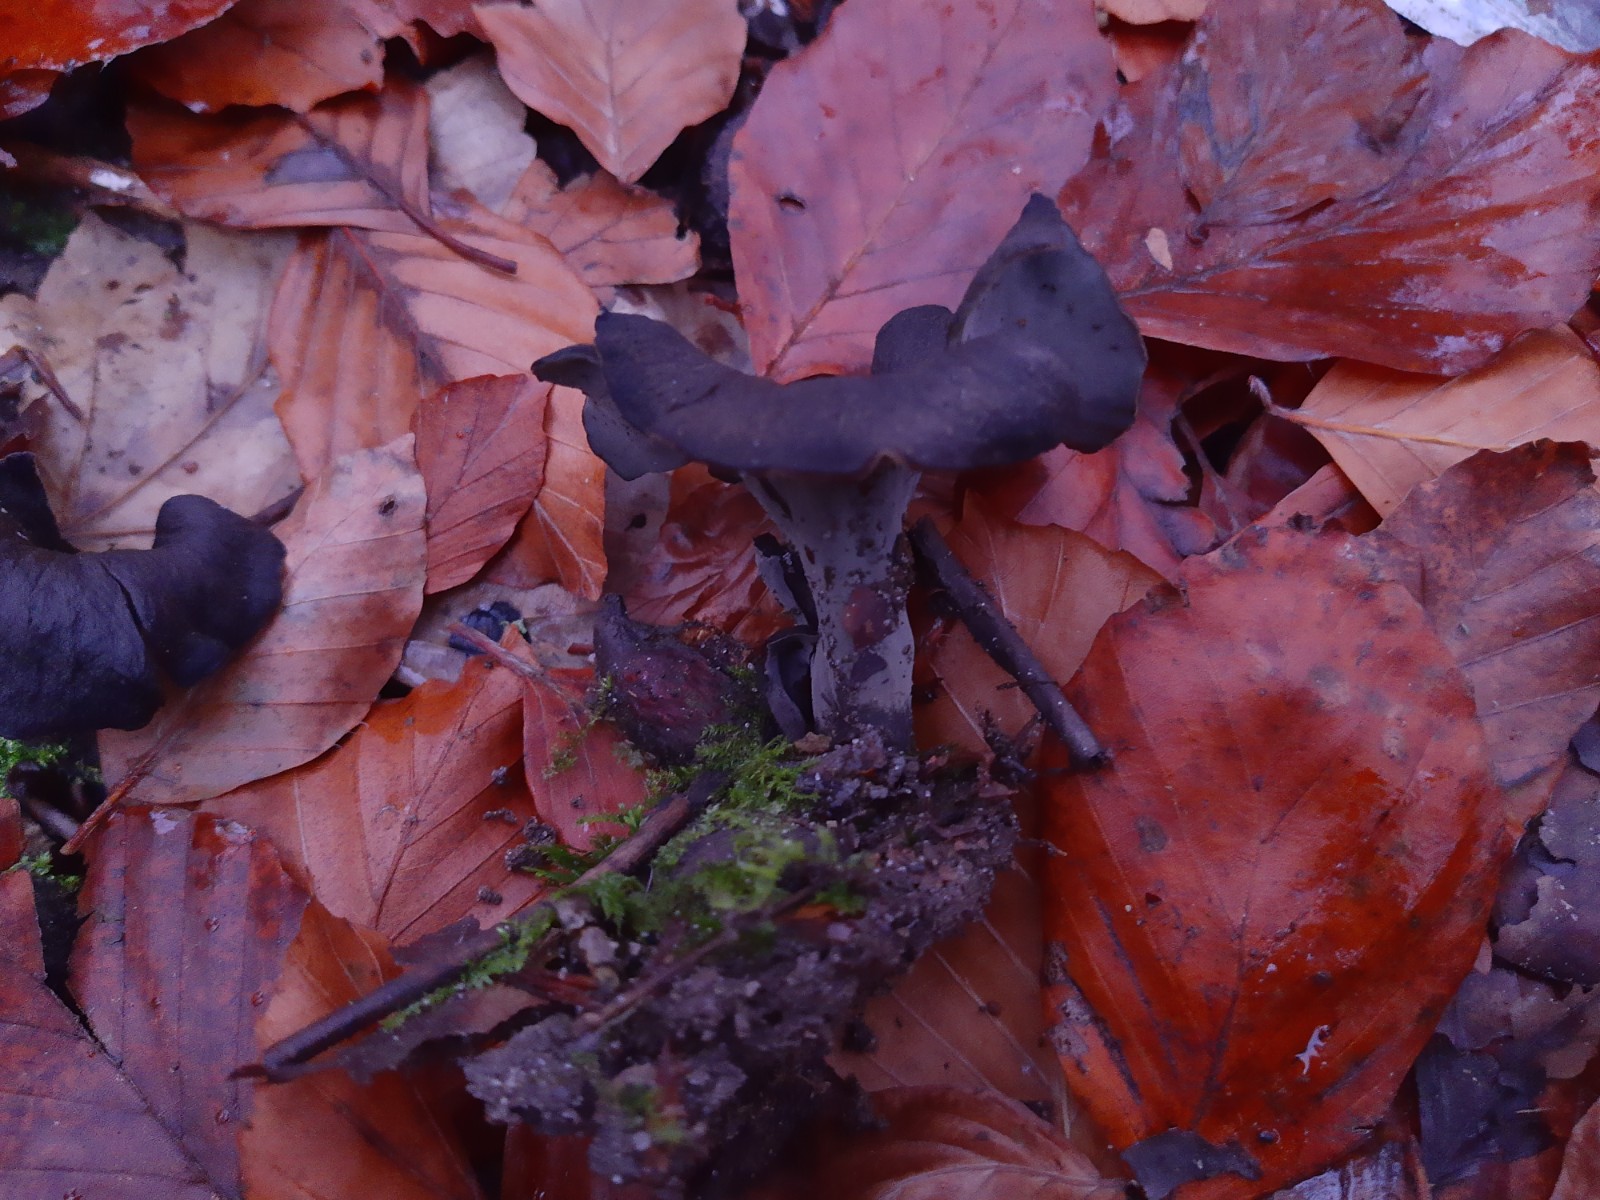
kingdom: Fungi
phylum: Basidiomycota
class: Agaricomycetes
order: Cantharellales
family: Hydnaceae
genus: Craterellus
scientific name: Craterellus cornucopioides
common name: trompetsvamp
